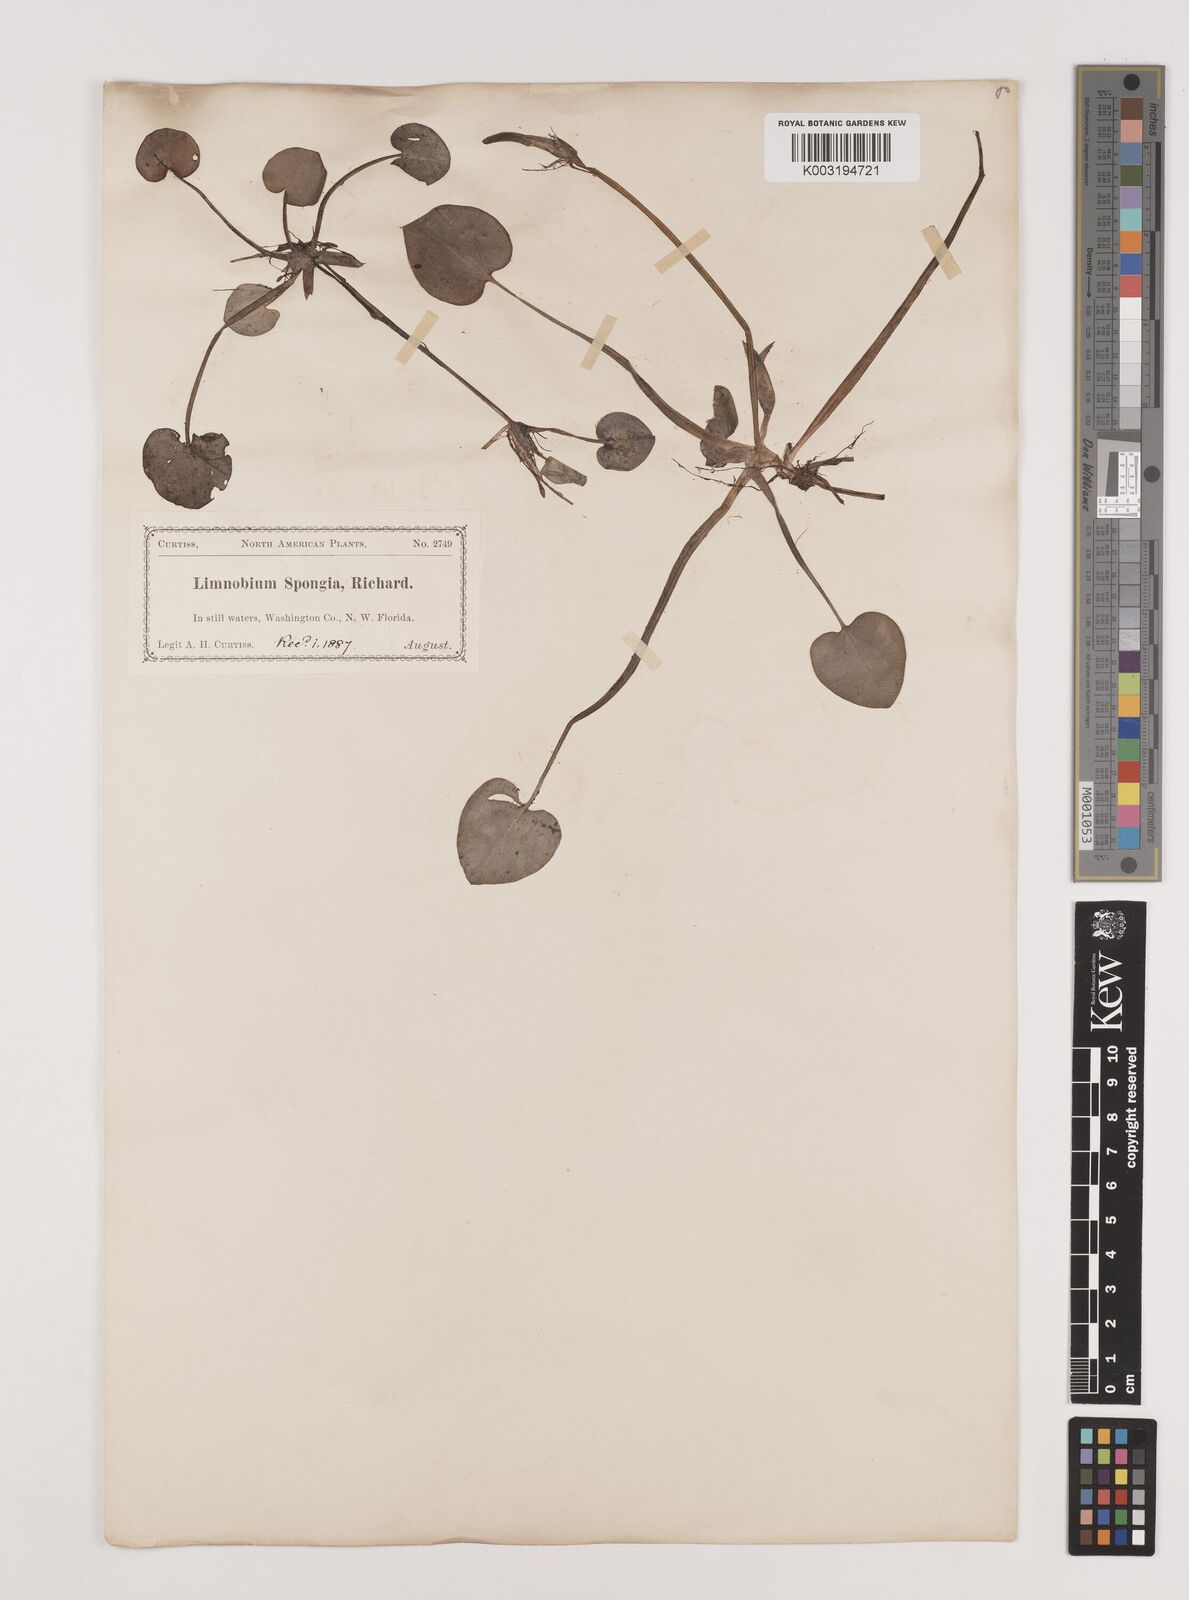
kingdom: Plantae
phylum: Tracheophyta
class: Liliopsida
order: Alismatales
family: Hydrocharitaceae
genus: Hydrocharis
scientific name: Hydrocharis spongia
